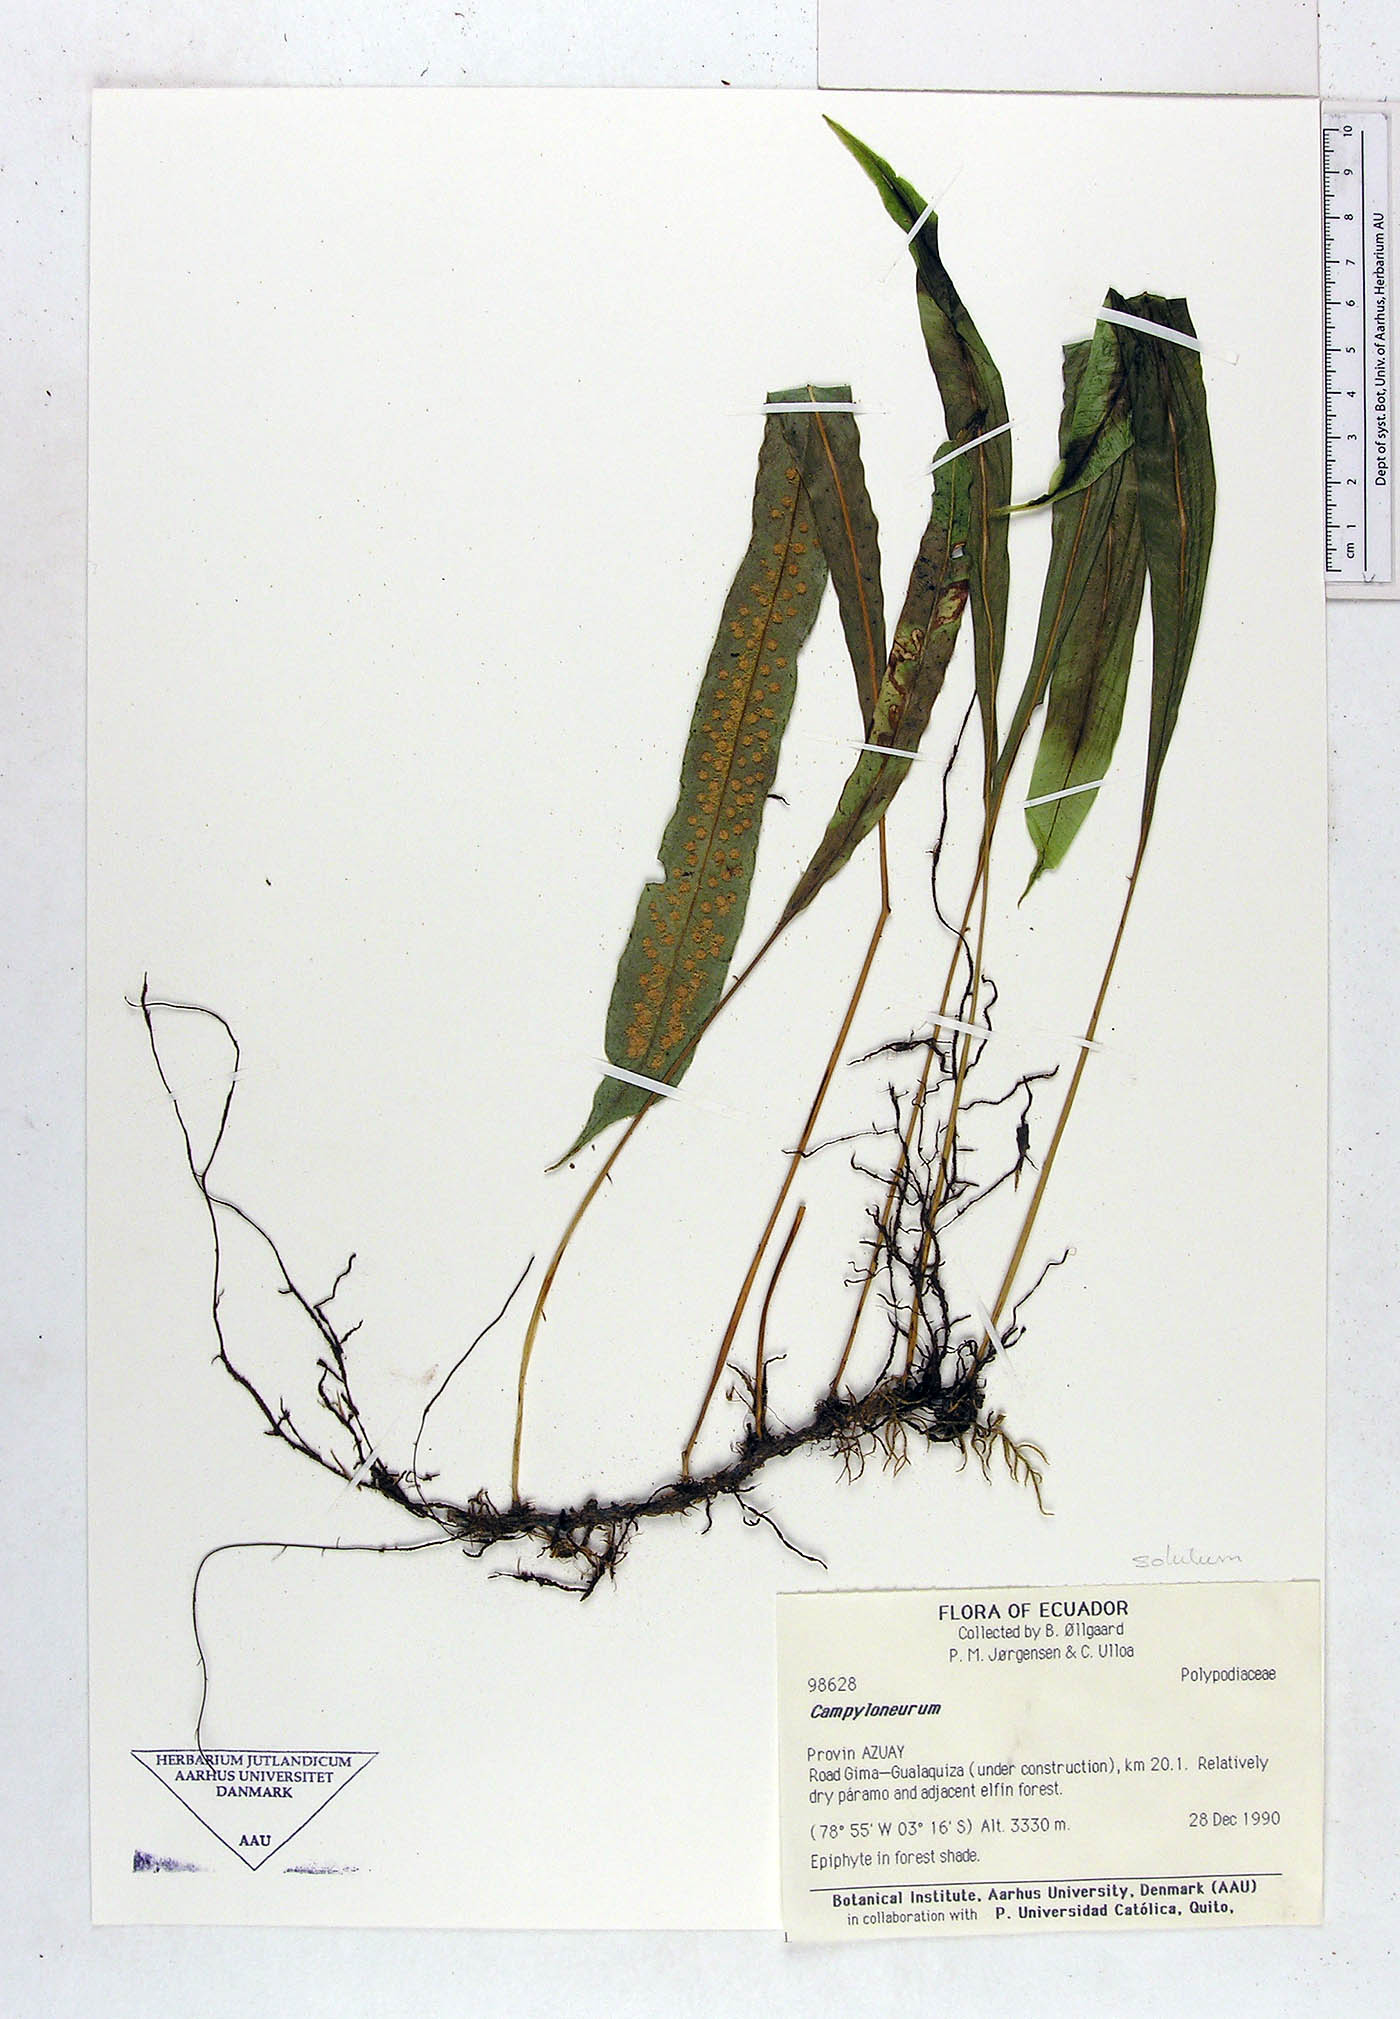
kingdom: Plantae
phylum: Tracheophyta
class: Polypodiopsida
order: Polypodiales
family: Polypodiaceae
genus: Campyloneurum
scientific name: Campyloneurum solutum
